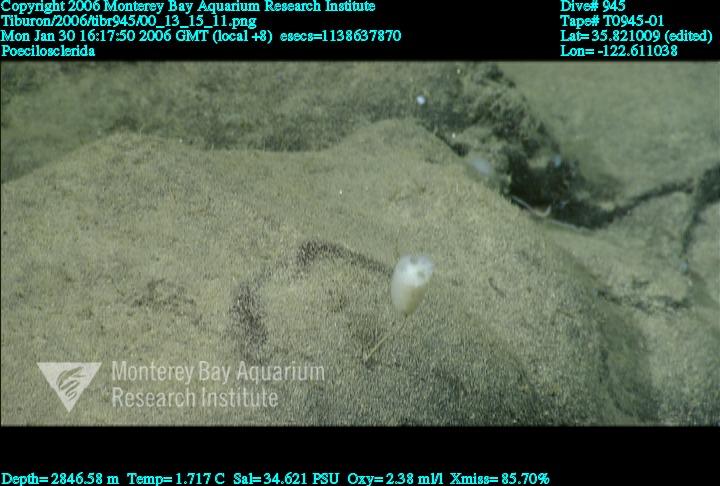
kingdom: Animalia
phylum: Porifera
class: Demospongiae
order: Poecilosclerida
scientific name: Poecilosclerida
